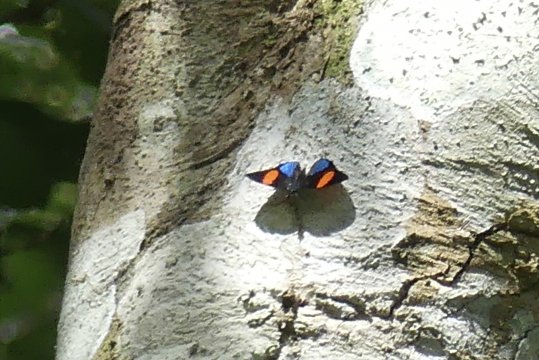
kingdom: Animalia
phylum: Arthropoda
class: Insecta
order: Lepidoptera
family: Nymphalidae
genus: Catagramma
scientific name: Catagramma Callicore tolima
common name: Blue-and-orange Eighty-eight
